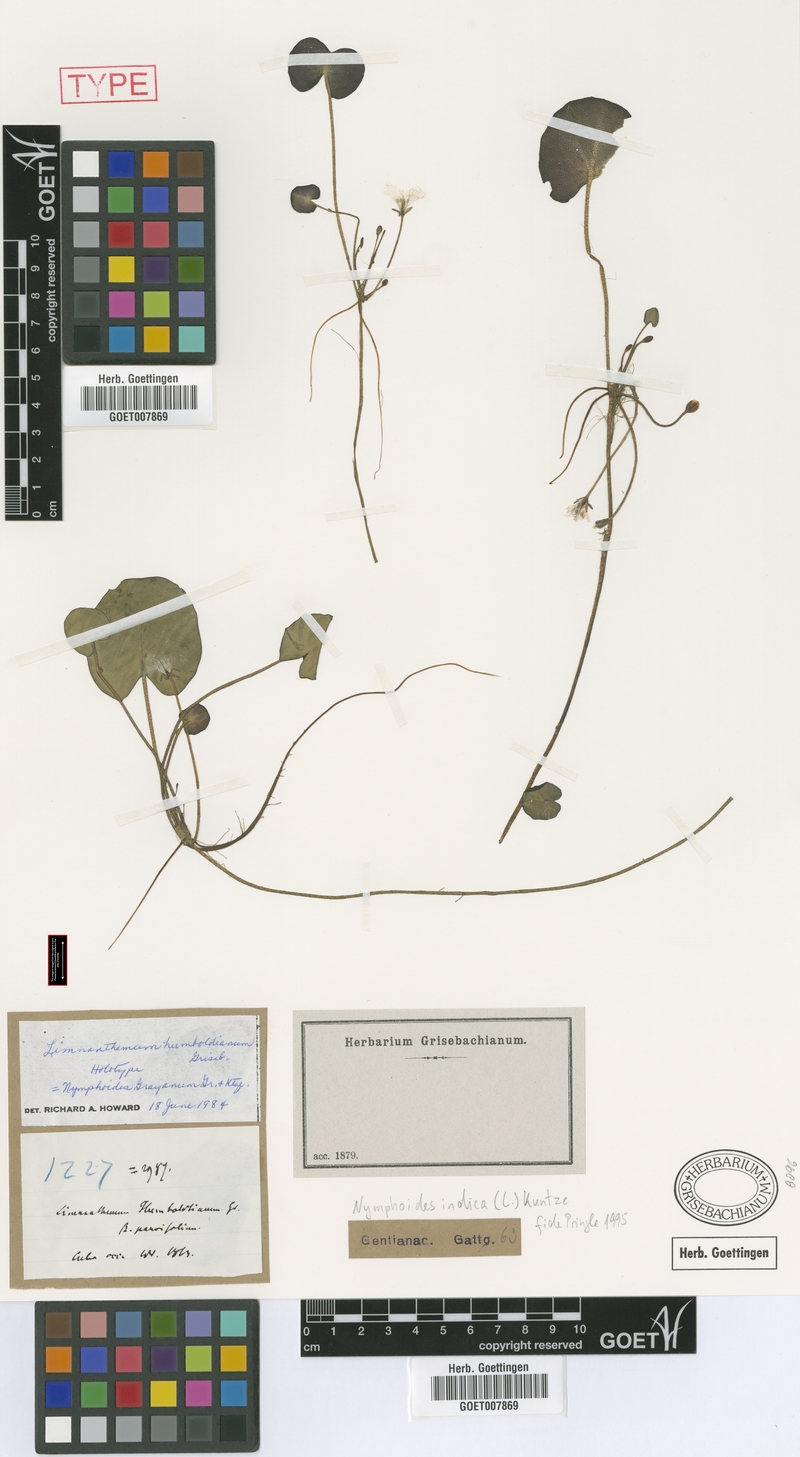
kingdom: Plantae
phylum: Tracheophyta
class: Magnoliopsida
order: Asterales
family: Menyanthaceae
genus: Nymphoides
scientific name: Nymphoides indica
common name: Water-snowflake
